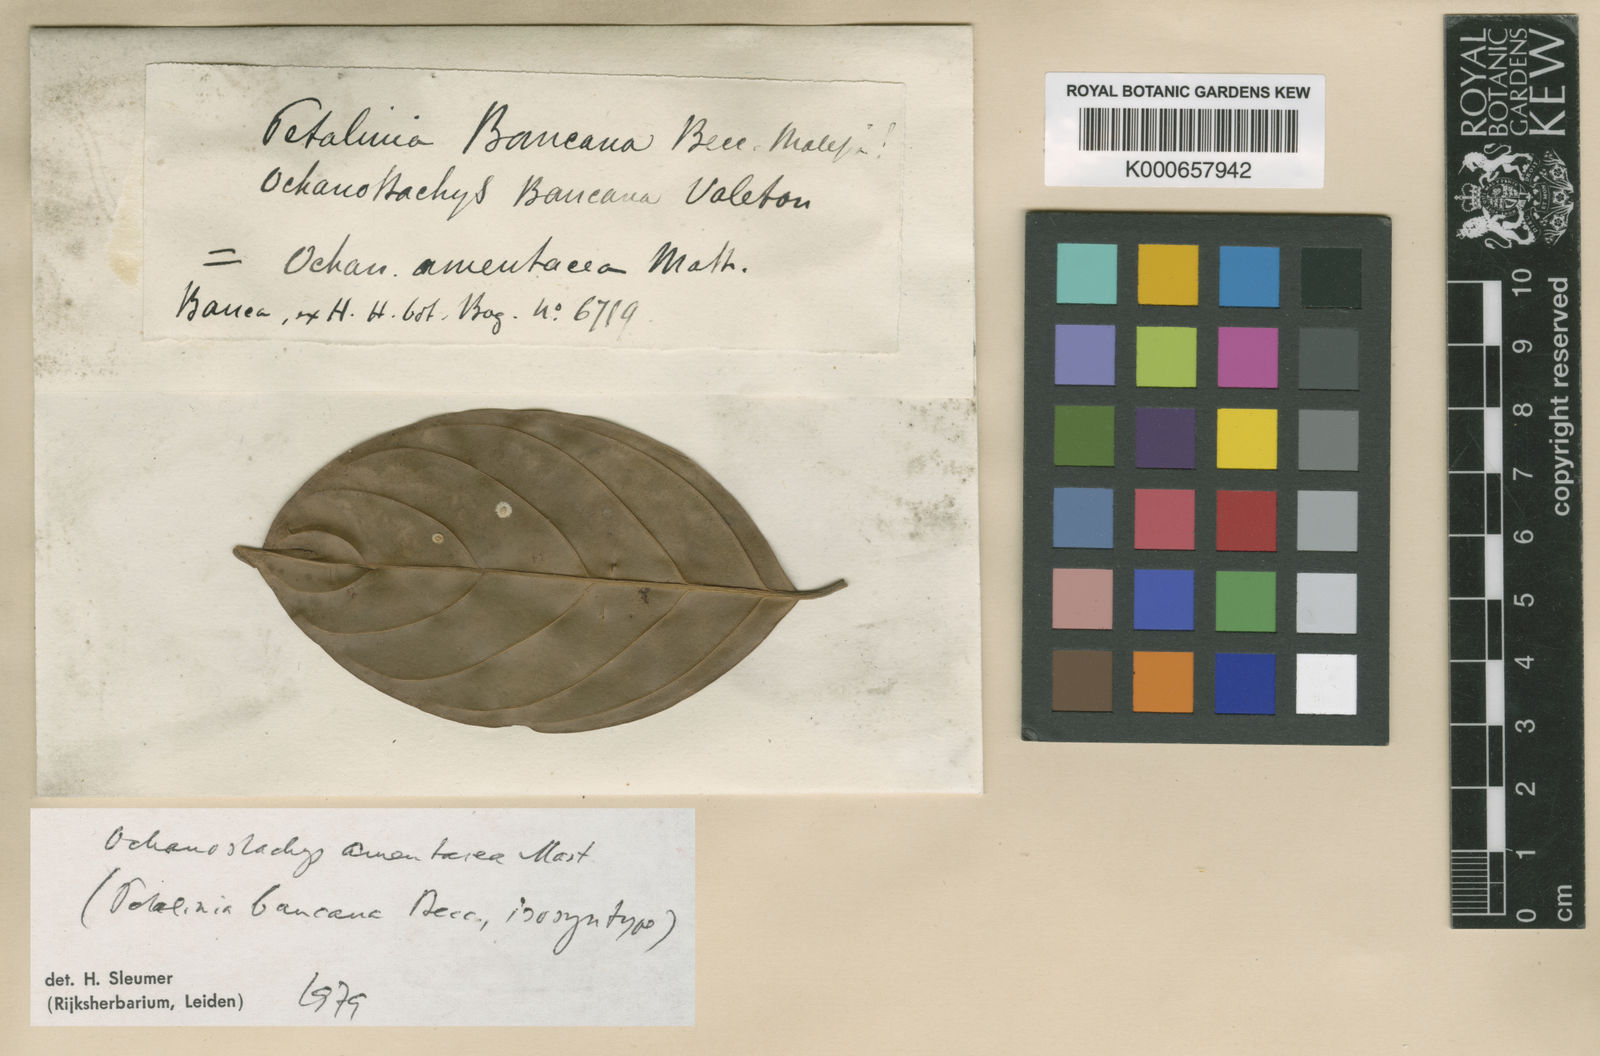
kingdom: Plantae
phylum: Tracheophyta
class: Magnoliopsida
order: Santalales
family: Coulaceae
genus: Ochanostachys
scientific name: Ochanostachys amentacea
